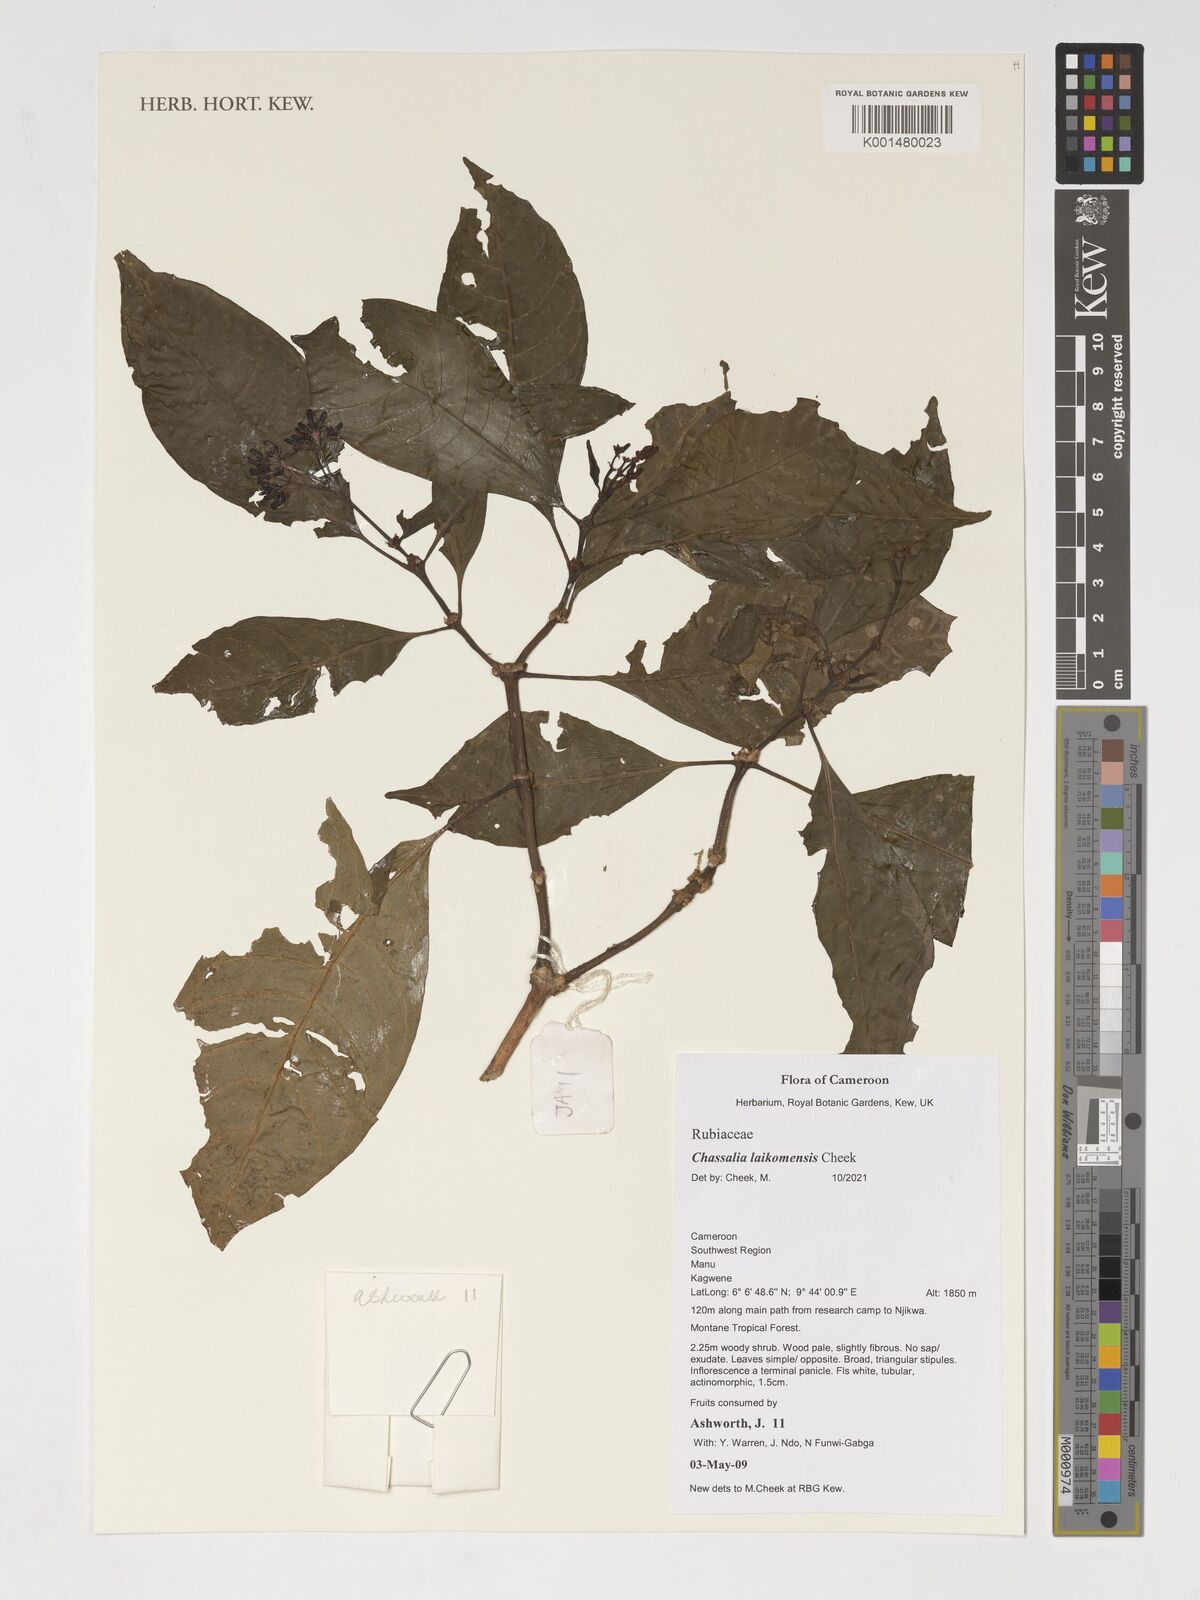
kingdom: Plantae
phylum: Tracheophyta
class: Magnoliopsida
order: Gentianales
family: Rubiaceae
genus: Chassalia
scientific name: Chassalia laikomensis
